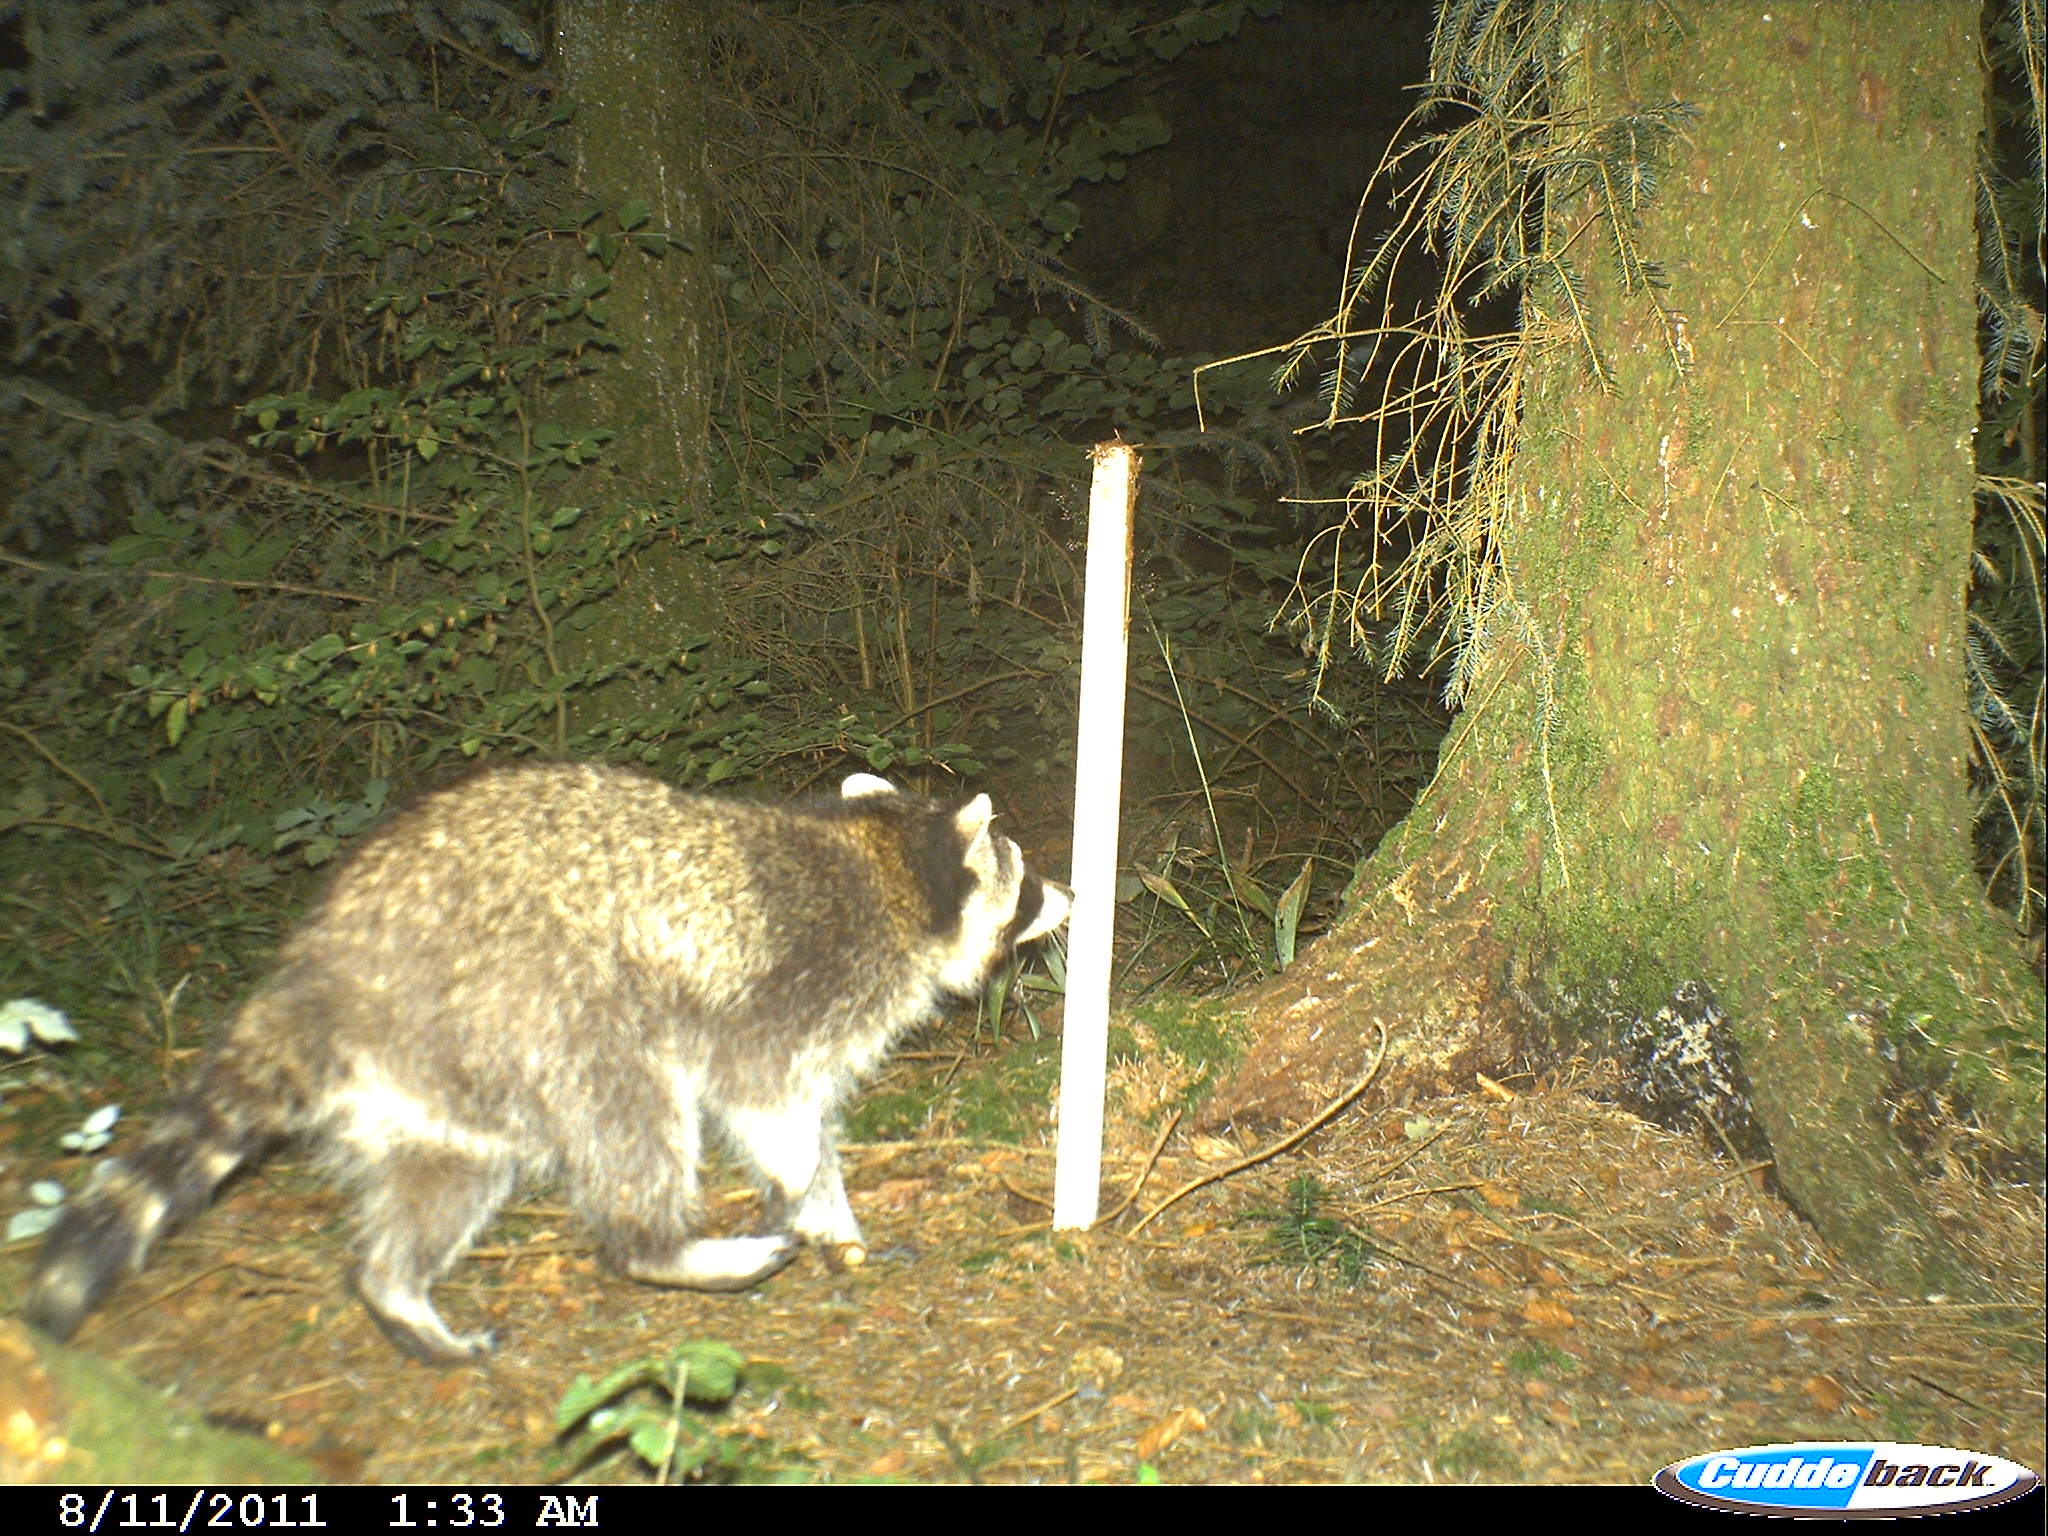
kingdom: Animalia
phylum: Chordata
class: Mammalia
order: Carnivora
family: Procyonidae
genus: Procyon
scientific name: Procyon lotor
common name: Raccoon
